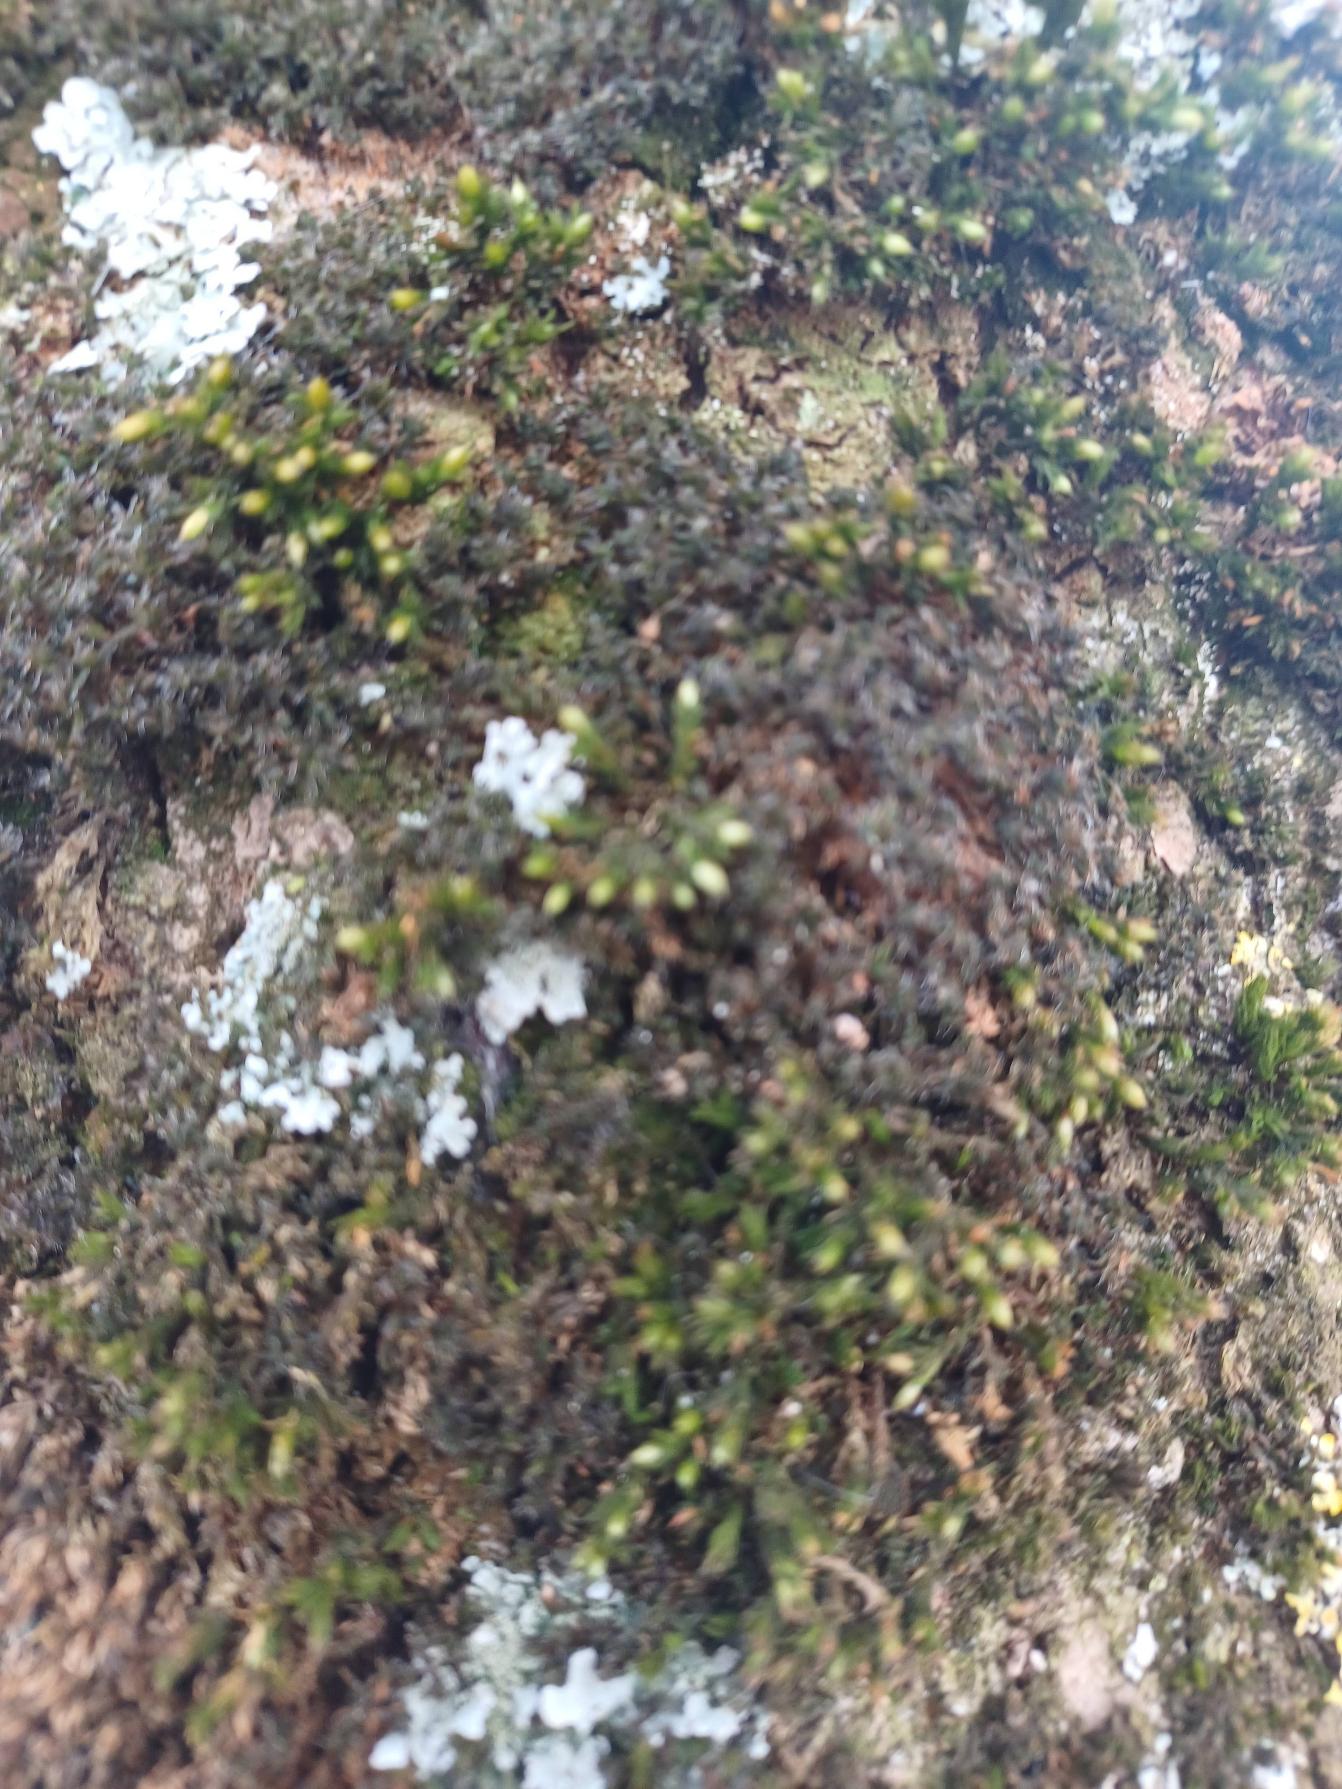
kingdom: Plantae
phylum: Bryophyta
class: Bryopsida
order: Orthotrichales
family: Orthotrichaceae
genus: Lewinskya
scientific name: Lewinskya affinis
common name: Almindelig furehætte
